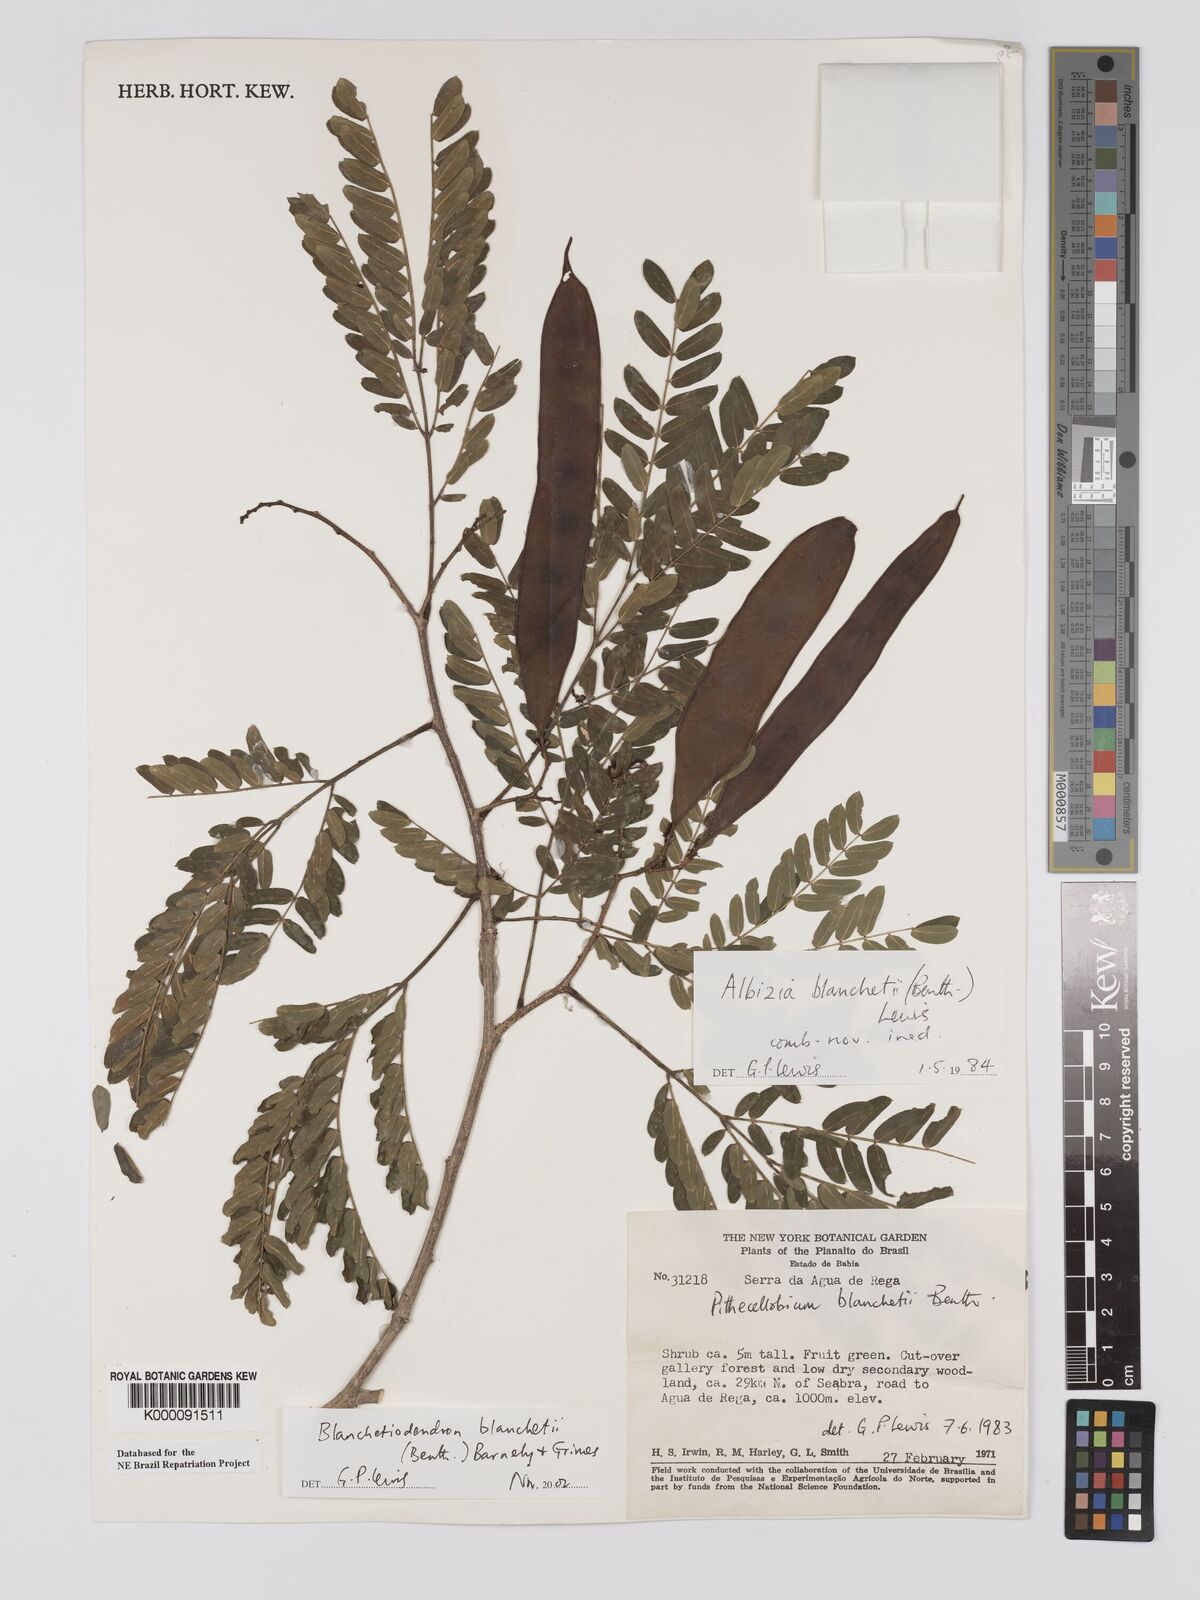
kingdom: Plantae
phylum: Tracheophyta
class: Magnoliopsida
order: Fabales
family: Fabaceae
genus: Blanchetiodendron
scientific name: Blanchetiodendron blanchetii
